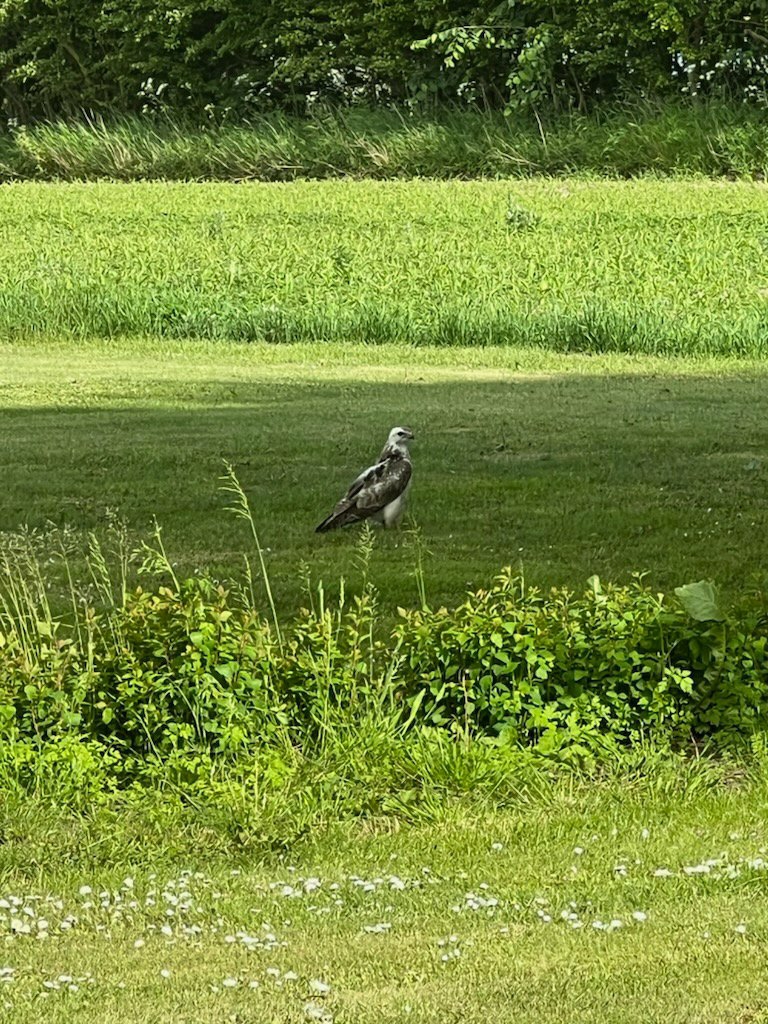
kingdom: Animalia
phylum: Chordata
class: Aves
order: Accipitriformes
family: Accipitridae
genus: Buteo
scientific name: Buteo buteo
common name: Musvåge
